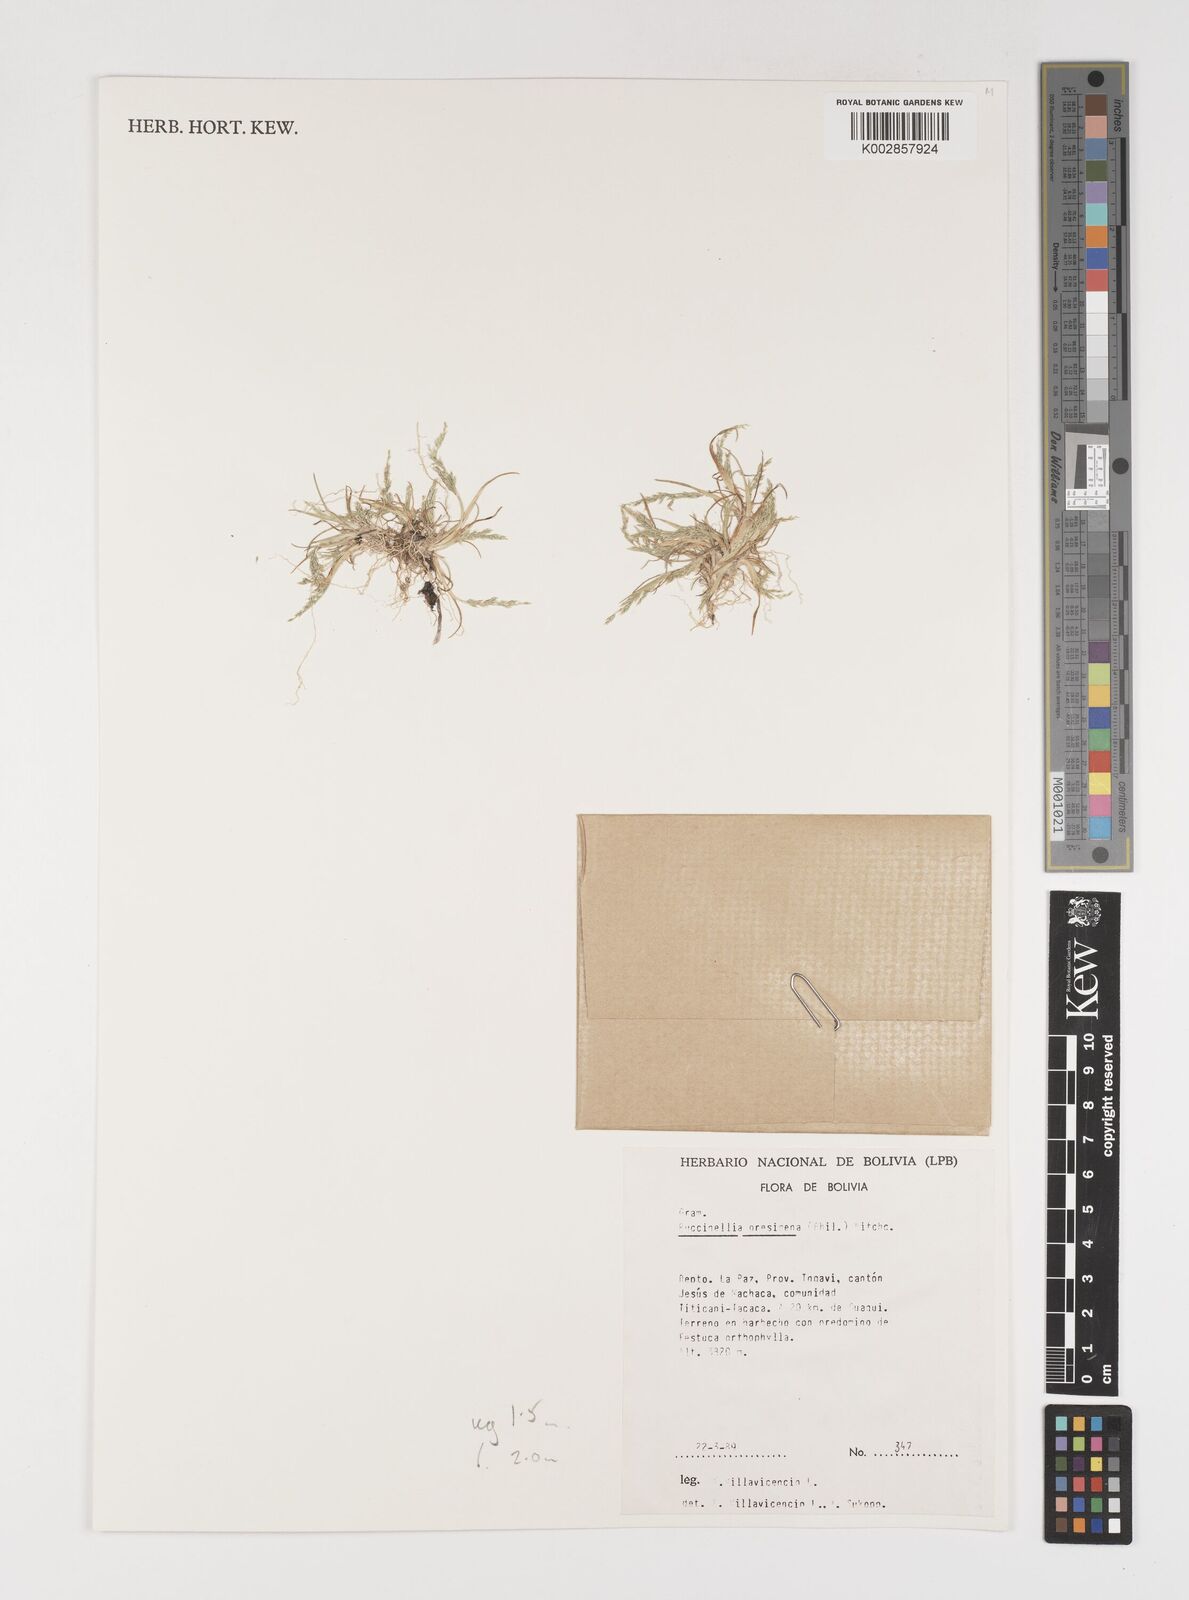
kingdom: Plantae
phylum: Tracheophyta
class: Liliopsida
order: Poales
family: Poaceae
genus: Puccinellia
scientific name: Puccinellia frigida
